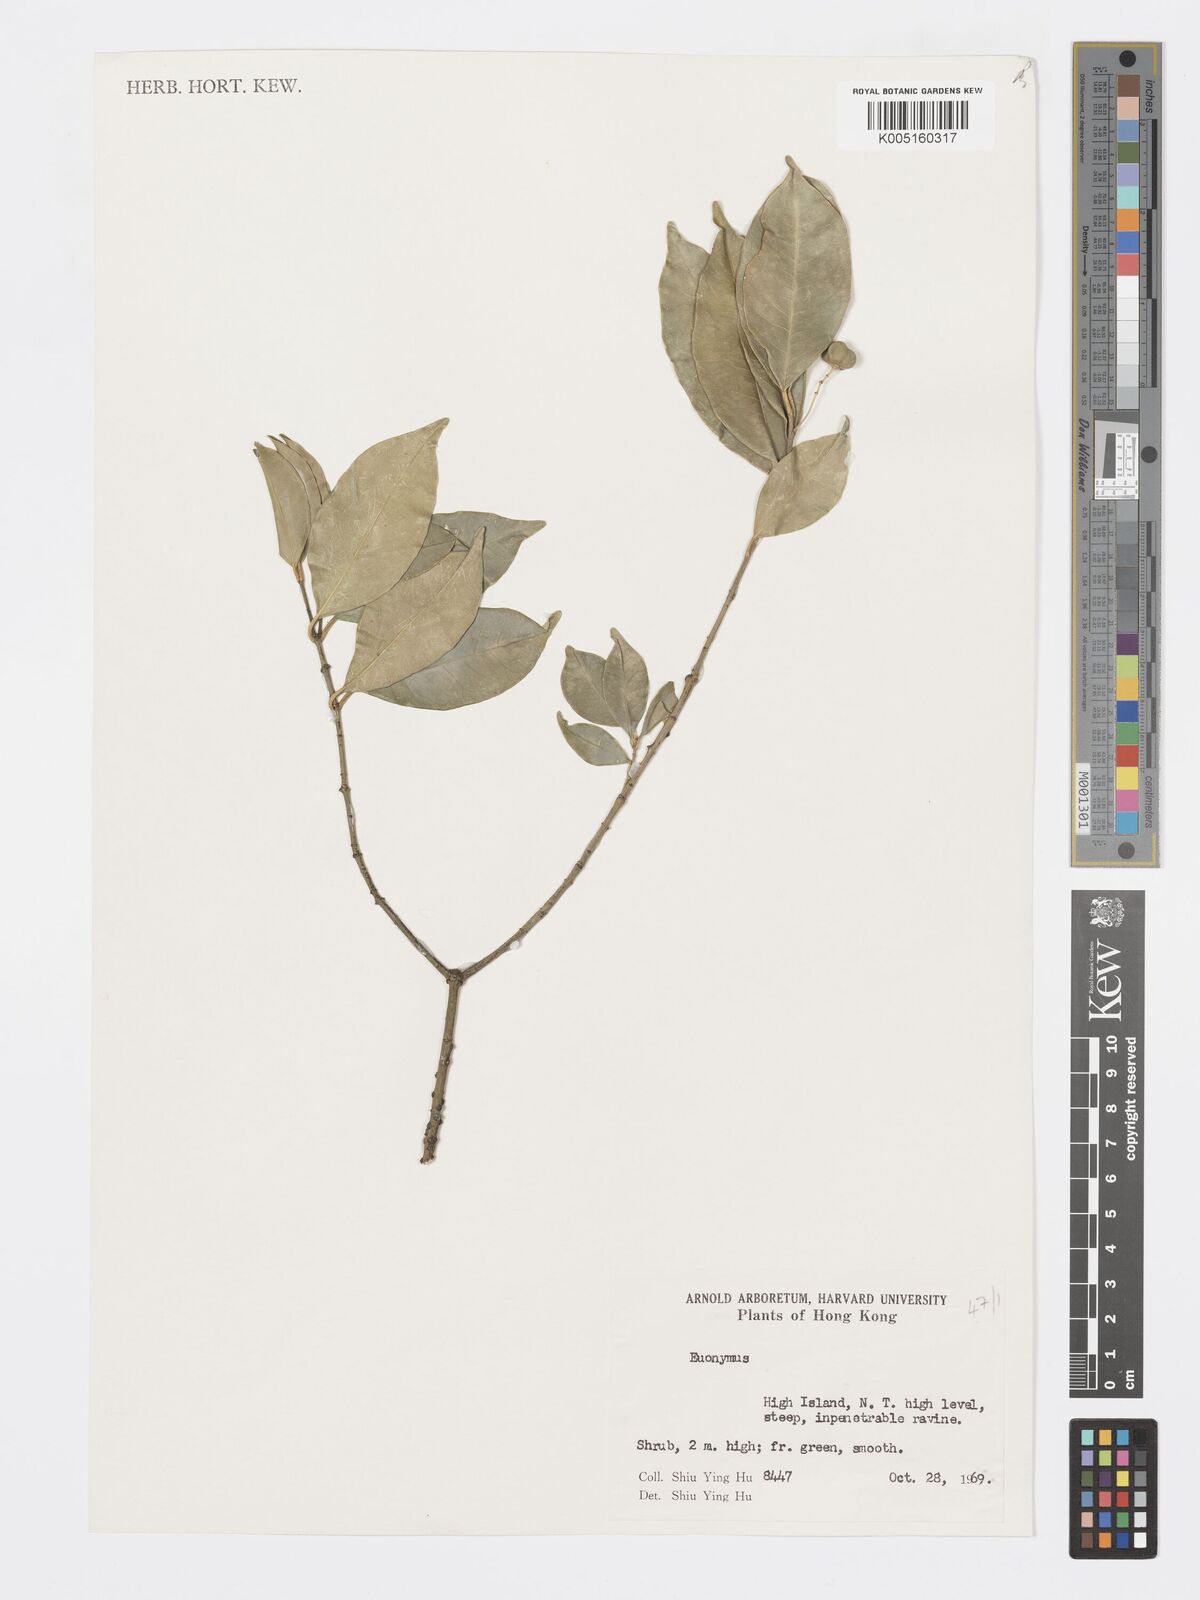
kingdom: Plantae
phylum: Tracheophyta
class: Magnoliopsida
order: Celastrales
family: Celastraceae
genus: Euonymus
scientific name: Euonymus
